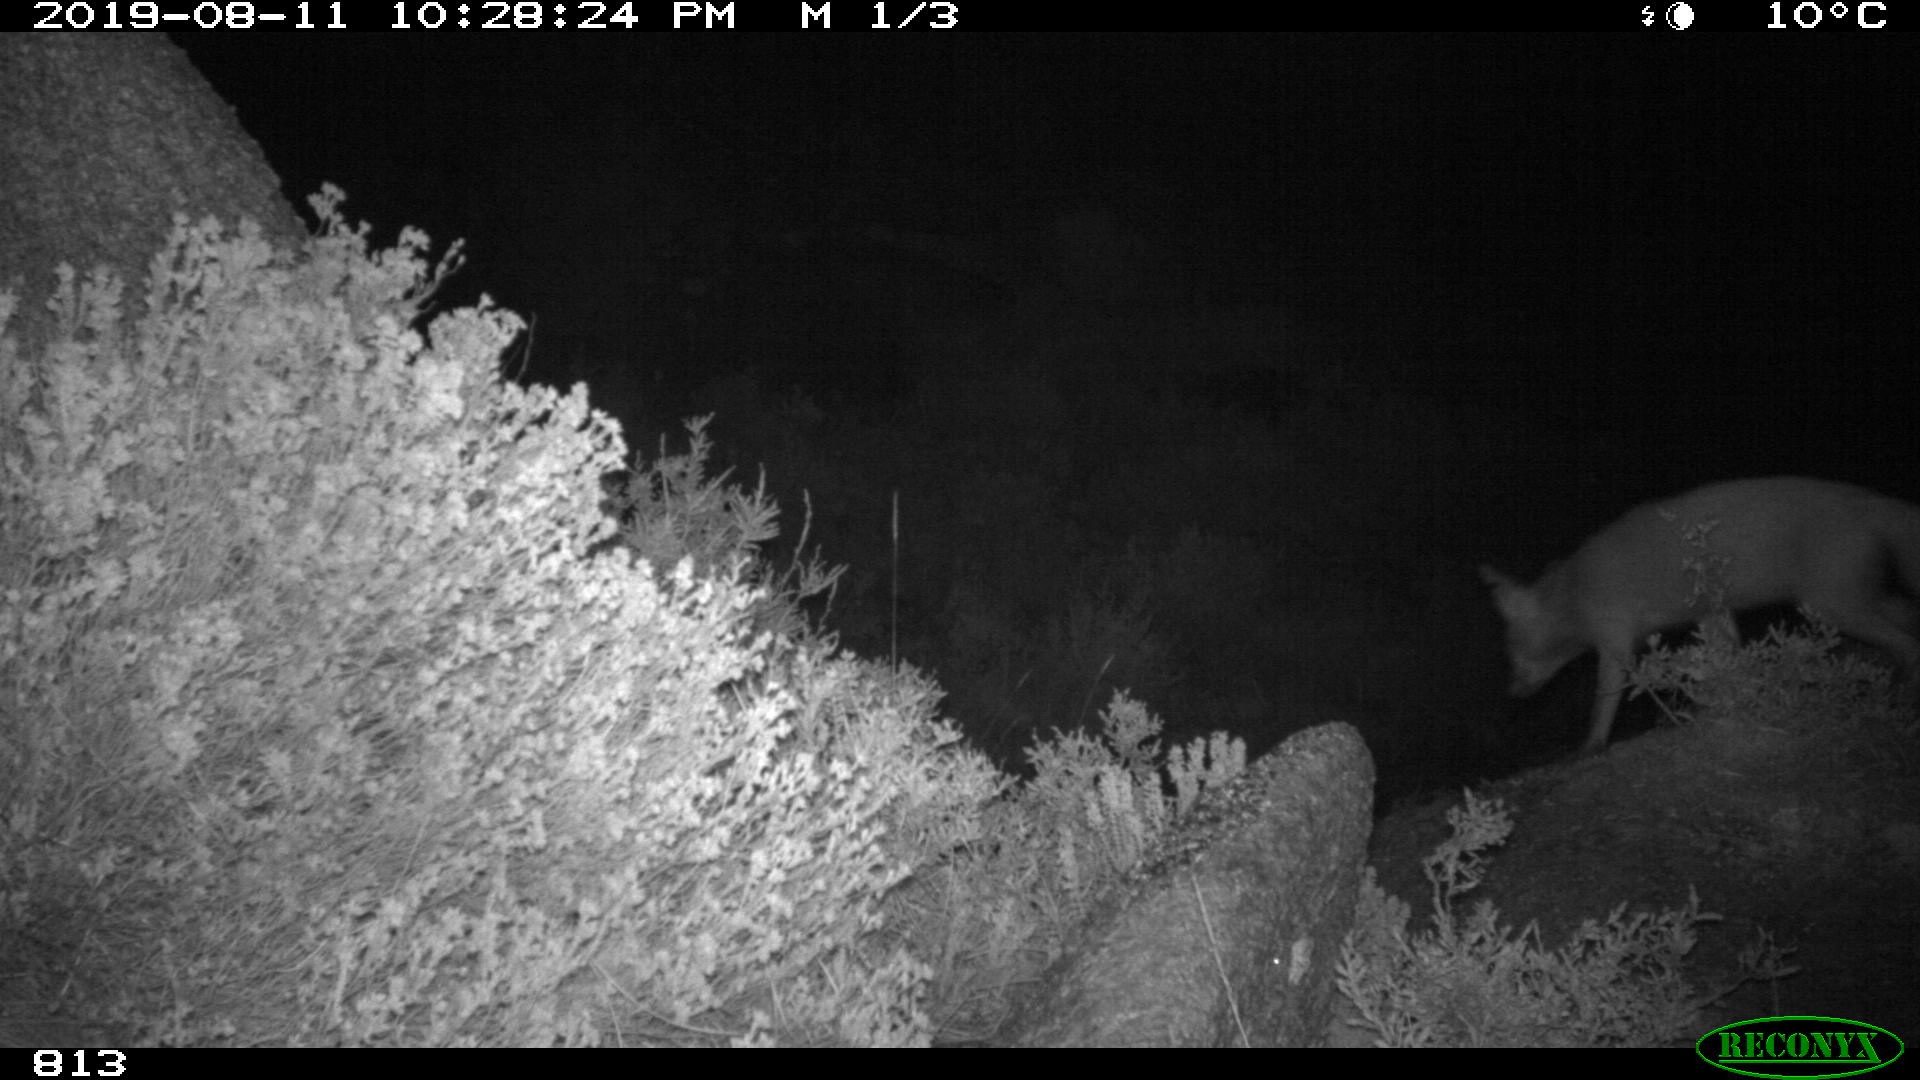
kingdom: Animalia
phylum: Chordata
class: Mammalia
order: Carnivora
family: Canidae
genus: Vulpes
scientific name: Vulpes vulpes
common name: Red fox
